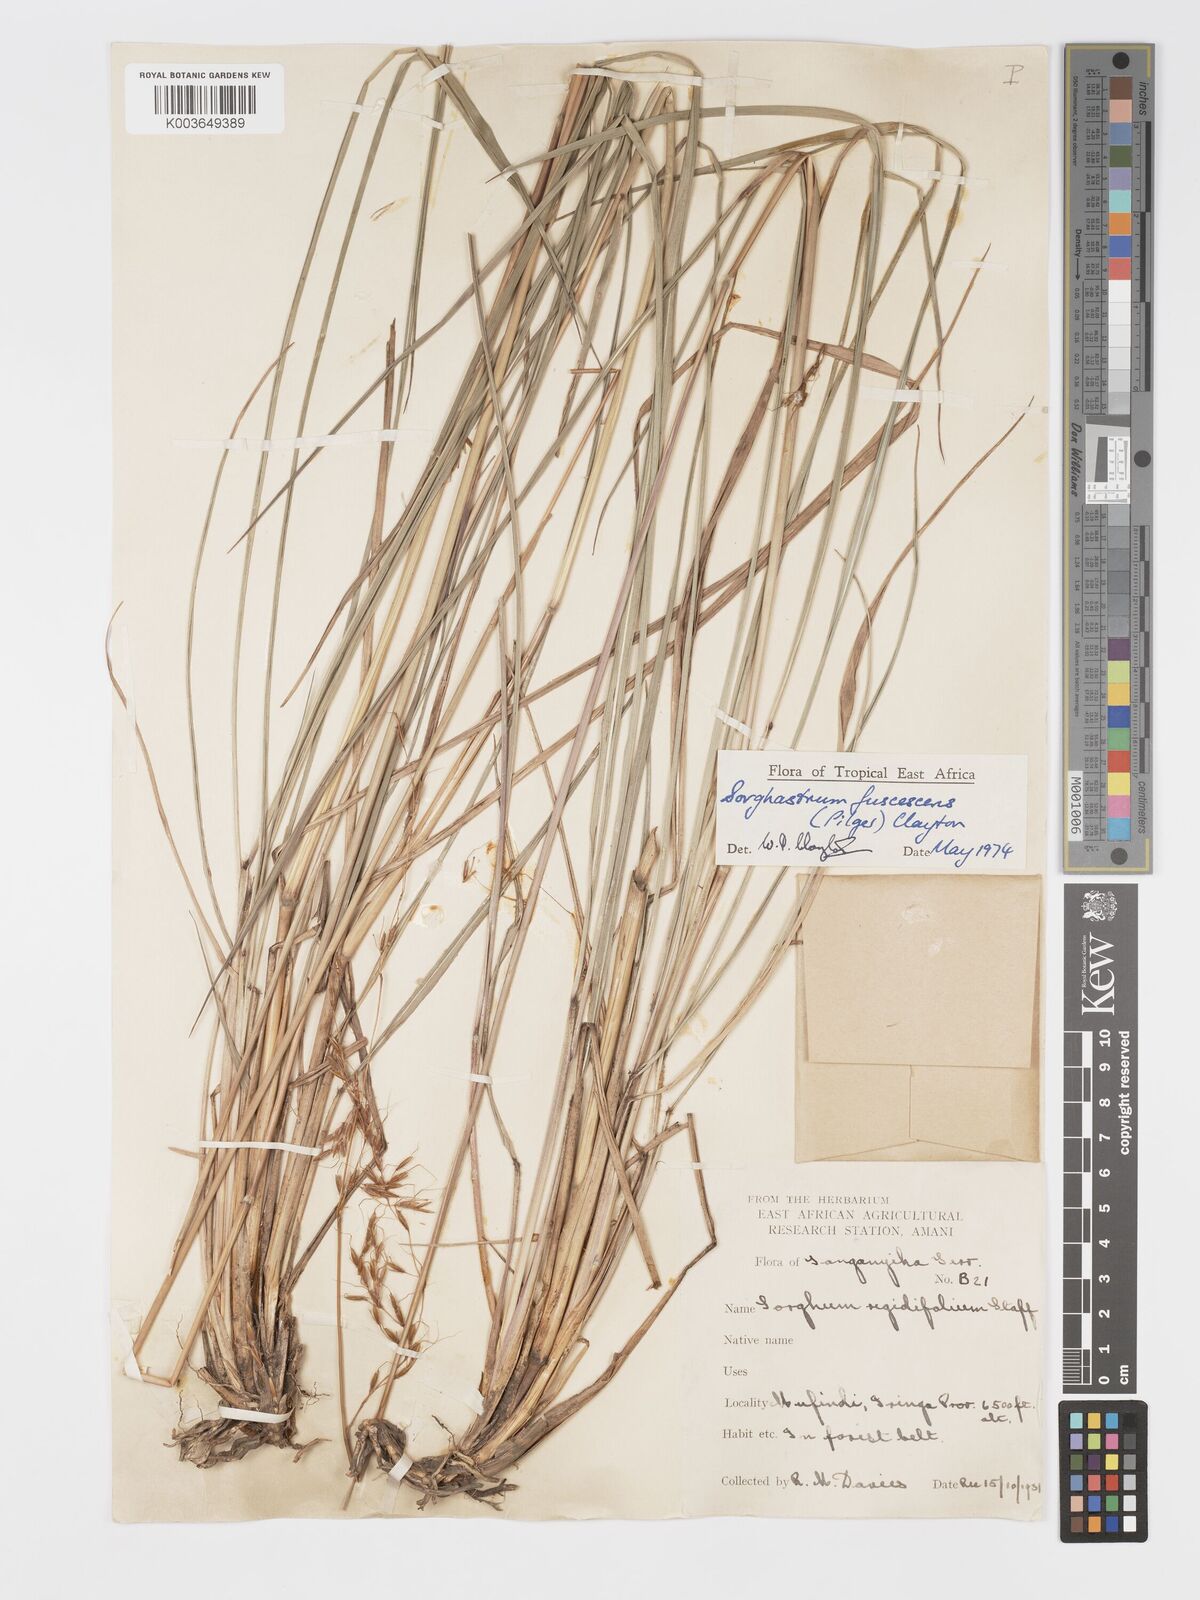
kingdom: Plantae
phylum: Tracheophyta
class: Liliopsida
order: Poales
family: Poaceae
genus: Sorghastrum
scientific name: Sorghastrum fuscescens
